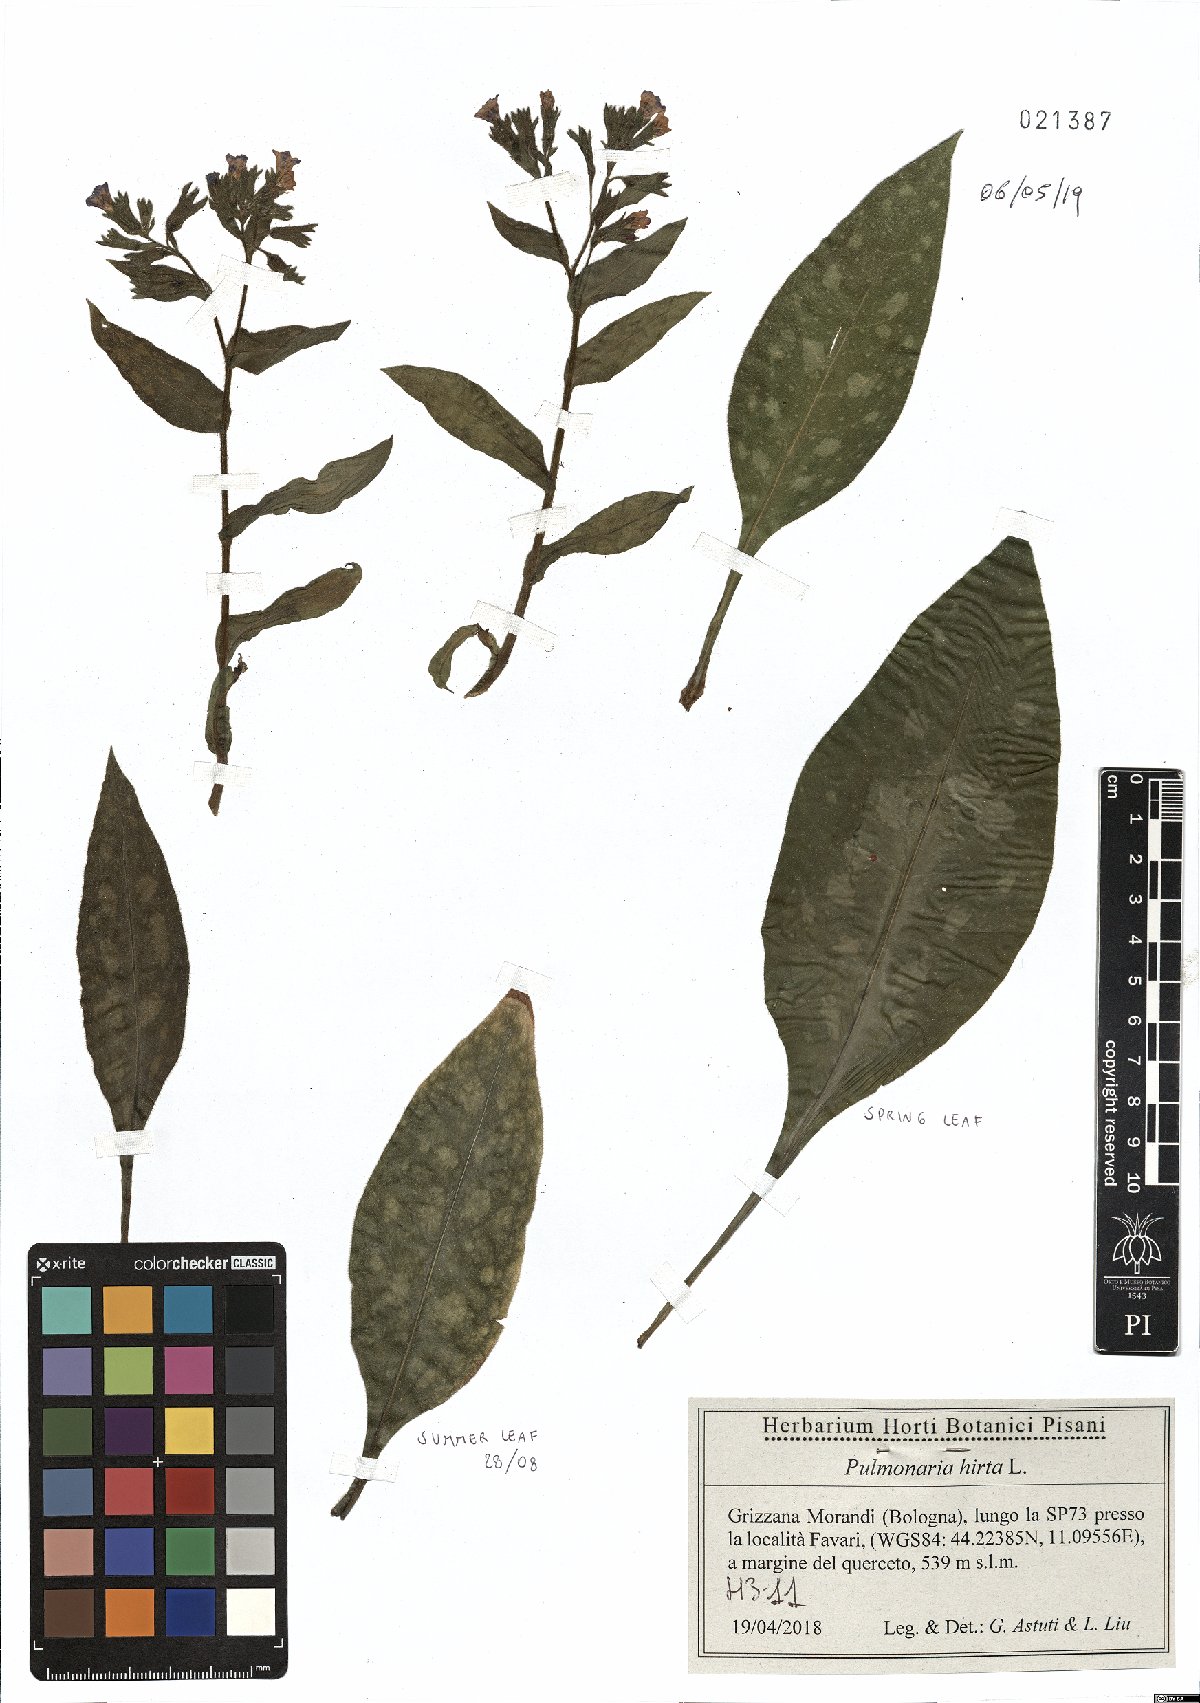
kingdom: Plantae
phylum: Tracheophyta
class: Magnoliopsida
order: Boraginales
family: Boraginaceae
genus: Pulmonaria
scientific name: Pulmonaria hirta
